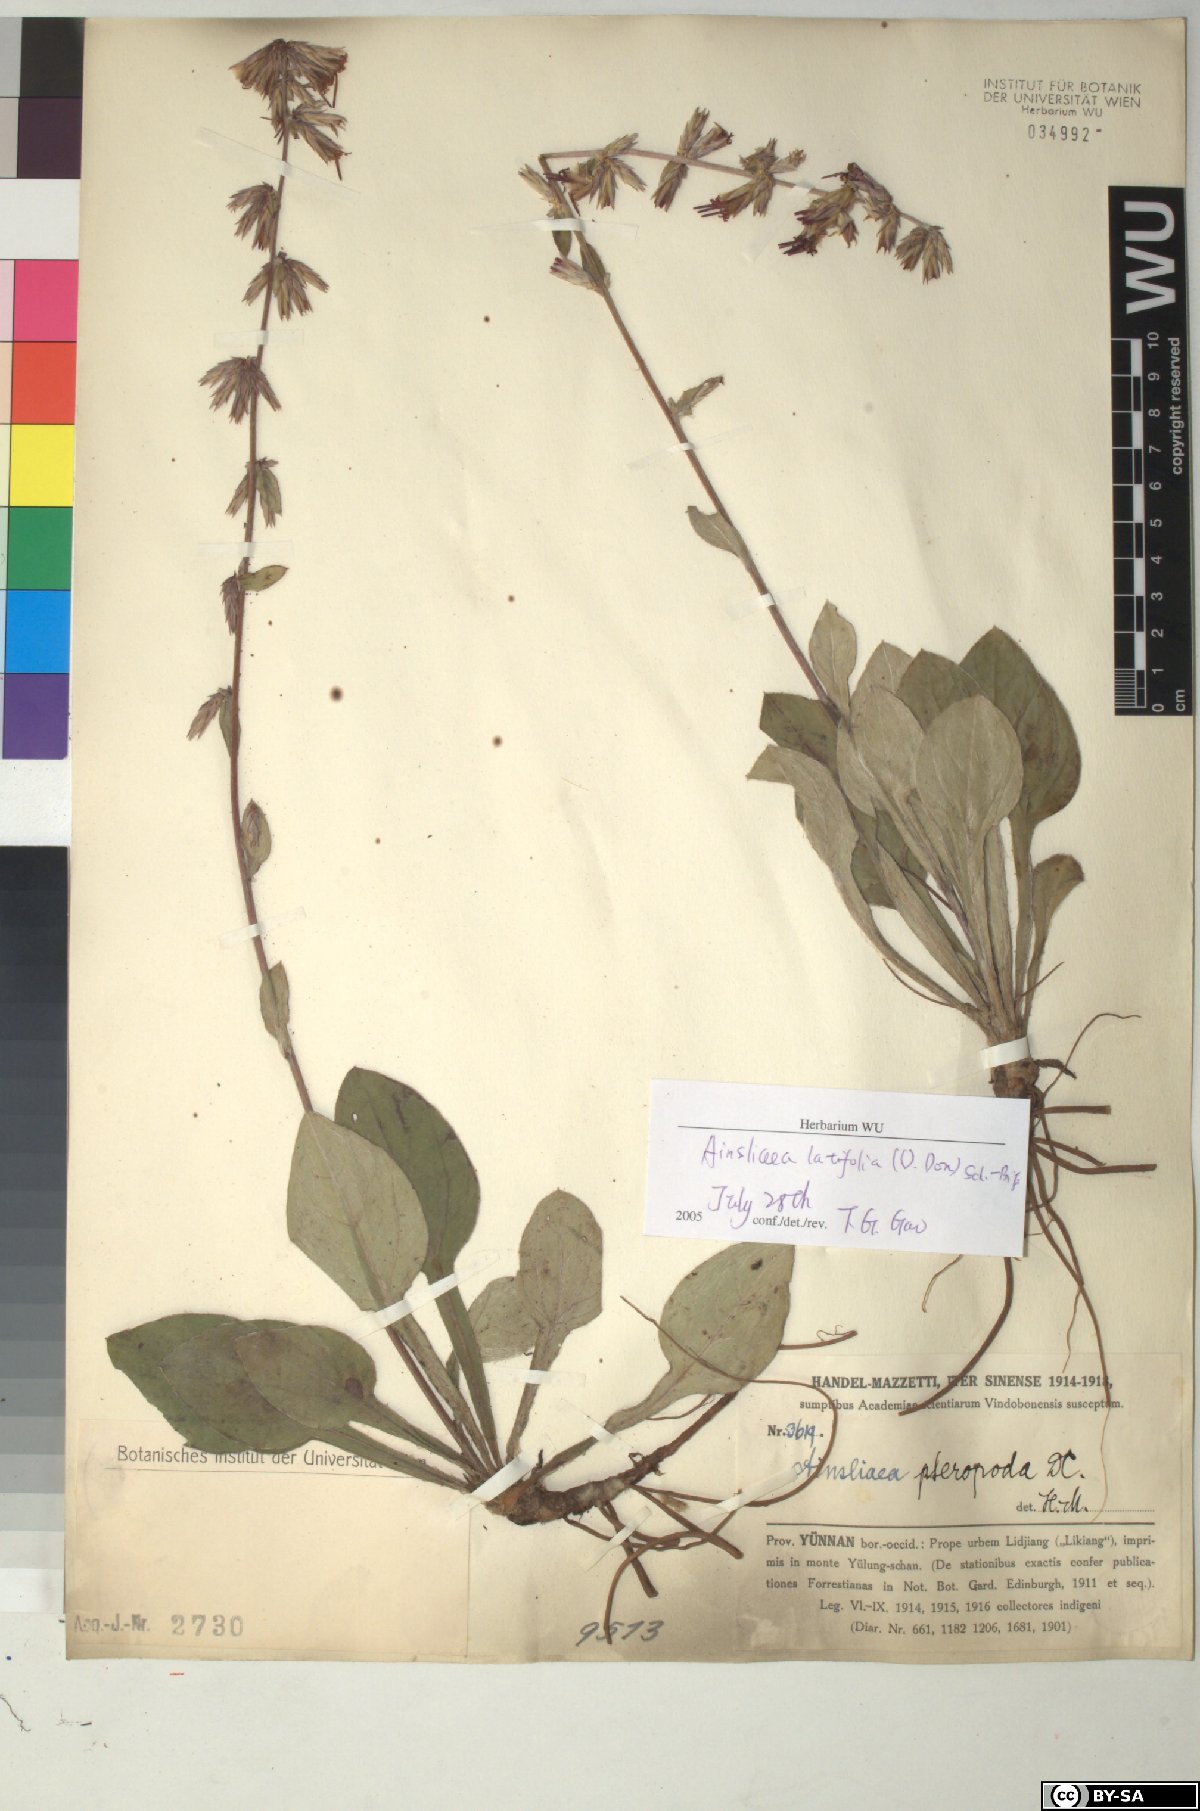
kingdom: Plantae
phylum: Tracheophyta
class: Magnoliopsida
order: Asterales
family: Asteraceae
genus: Ainsliaea
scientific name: Ainsliaea latifolia
